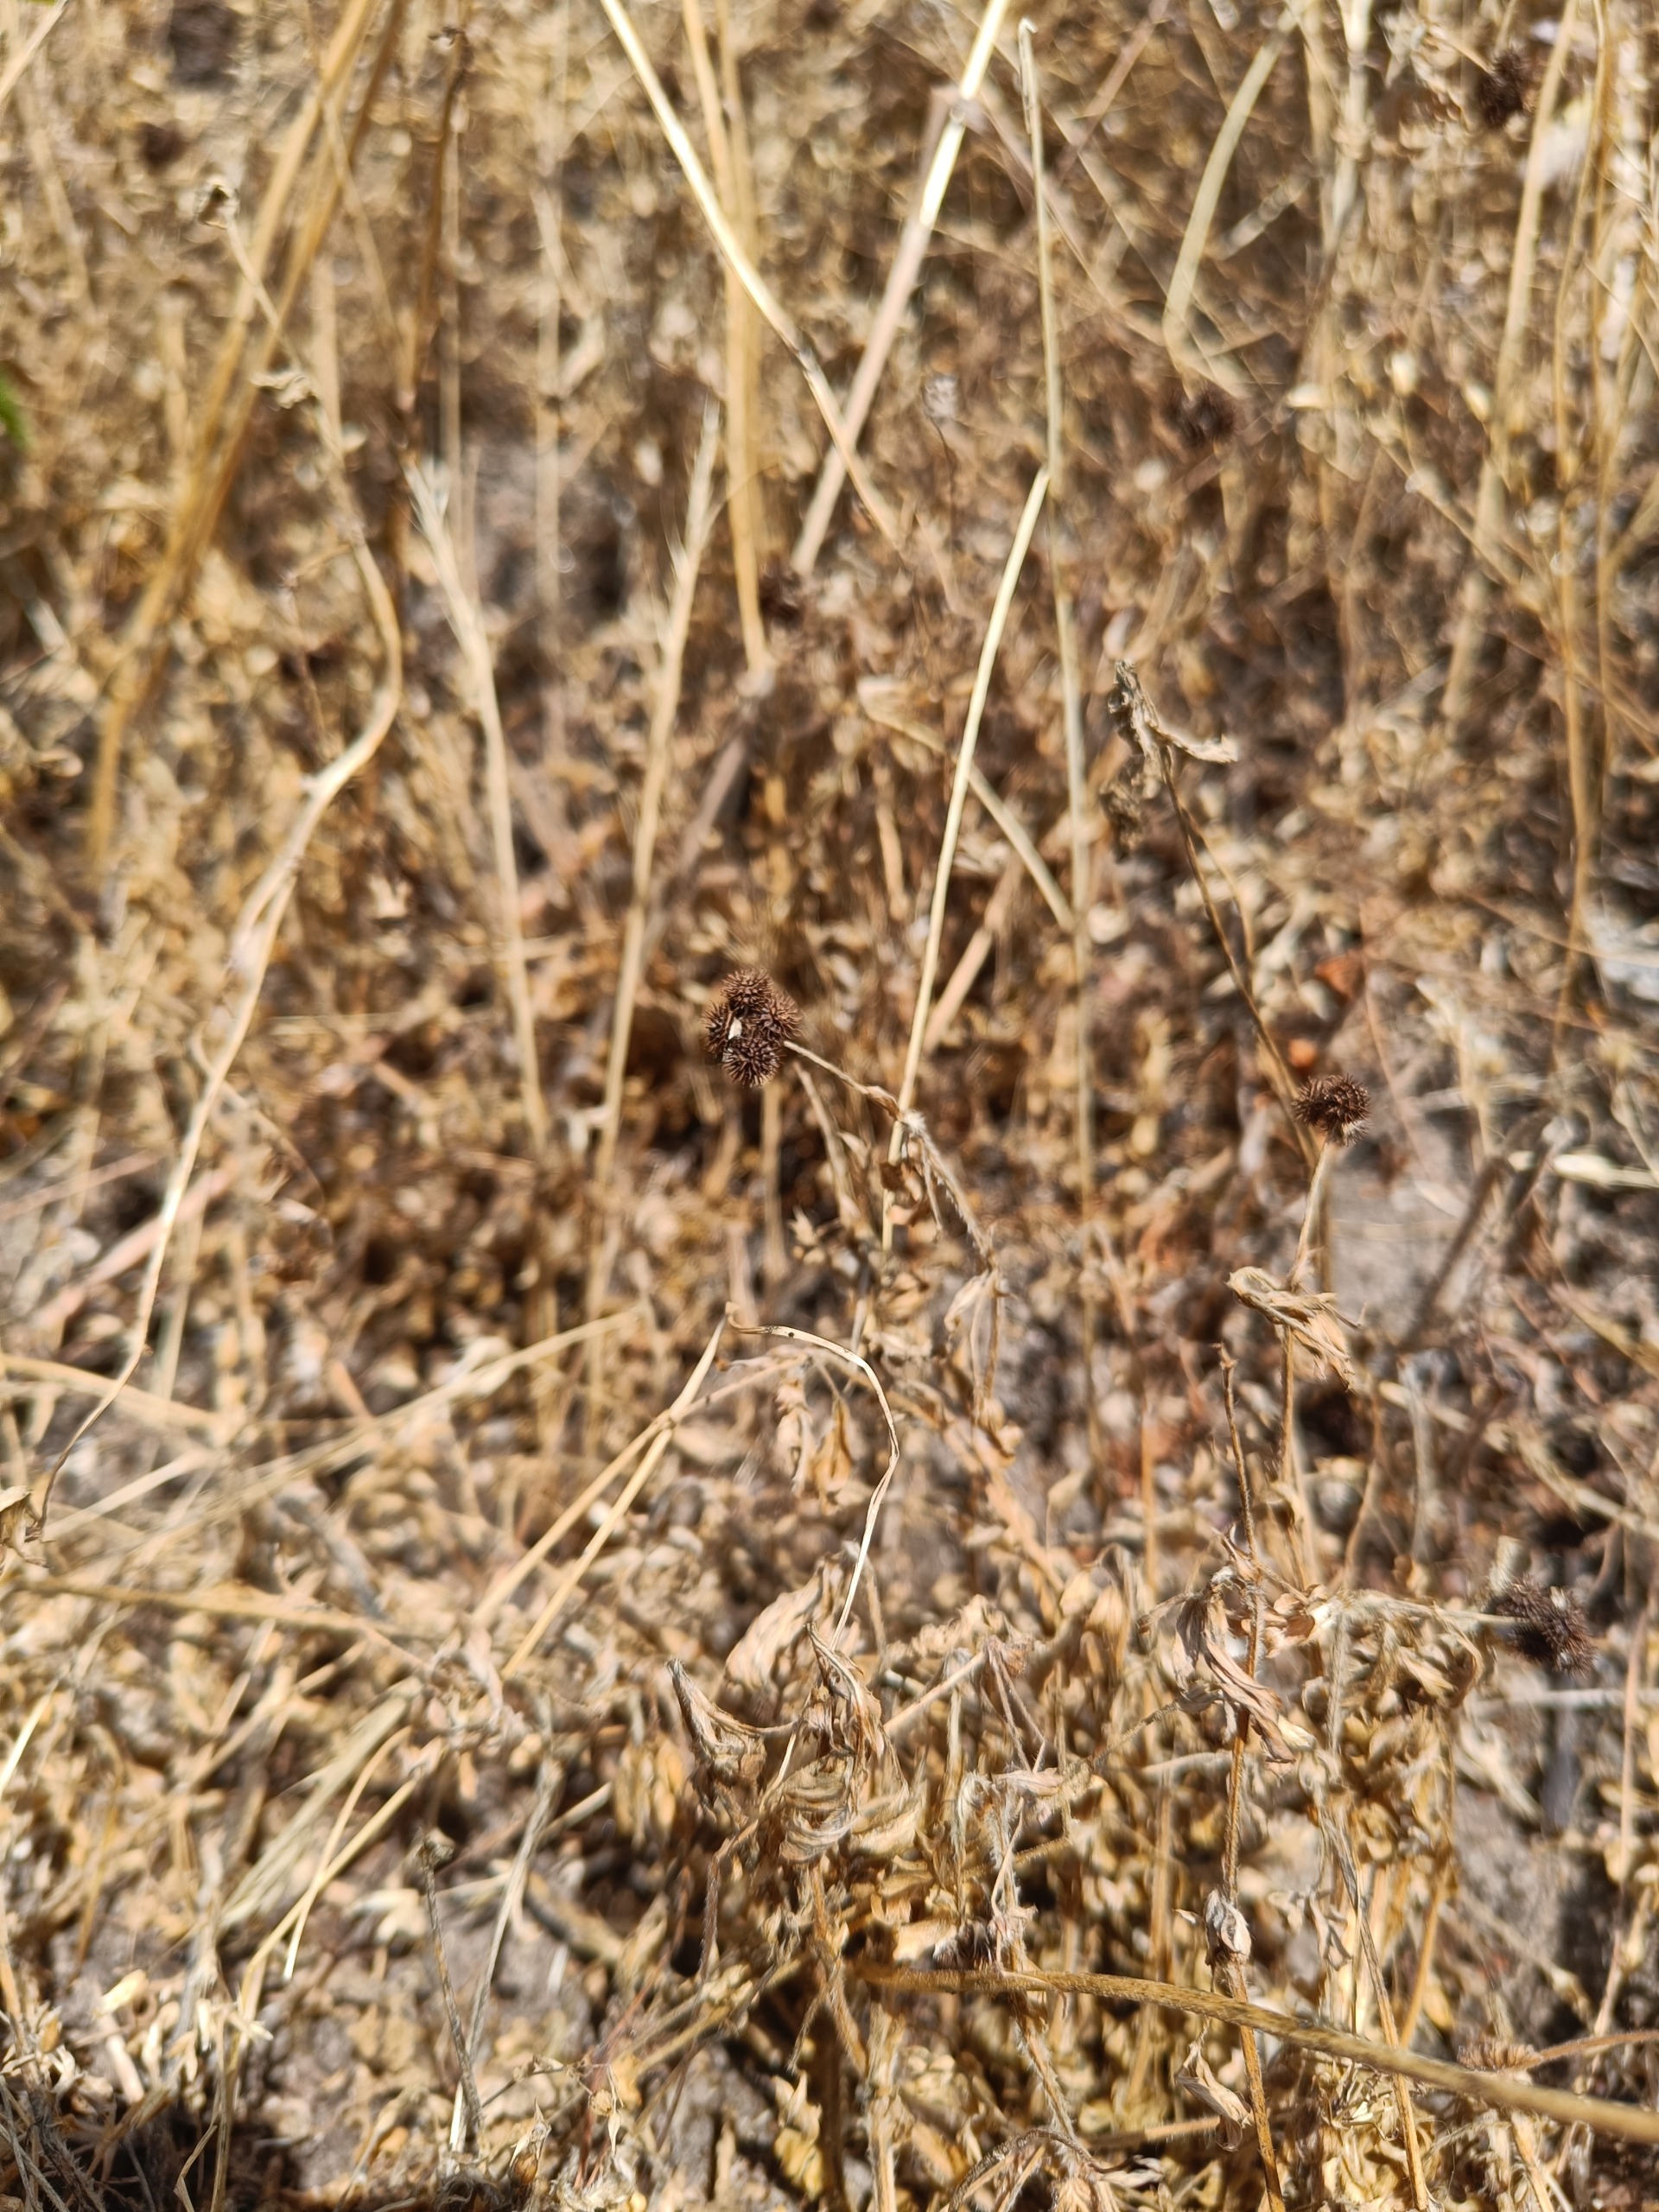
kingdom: Plantae
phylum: Tracheophyta
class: Magnoliopsida
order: Fabales
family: Fabaceae
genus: Medicago
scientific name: Medicago minima
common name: Liden sneglebælg
